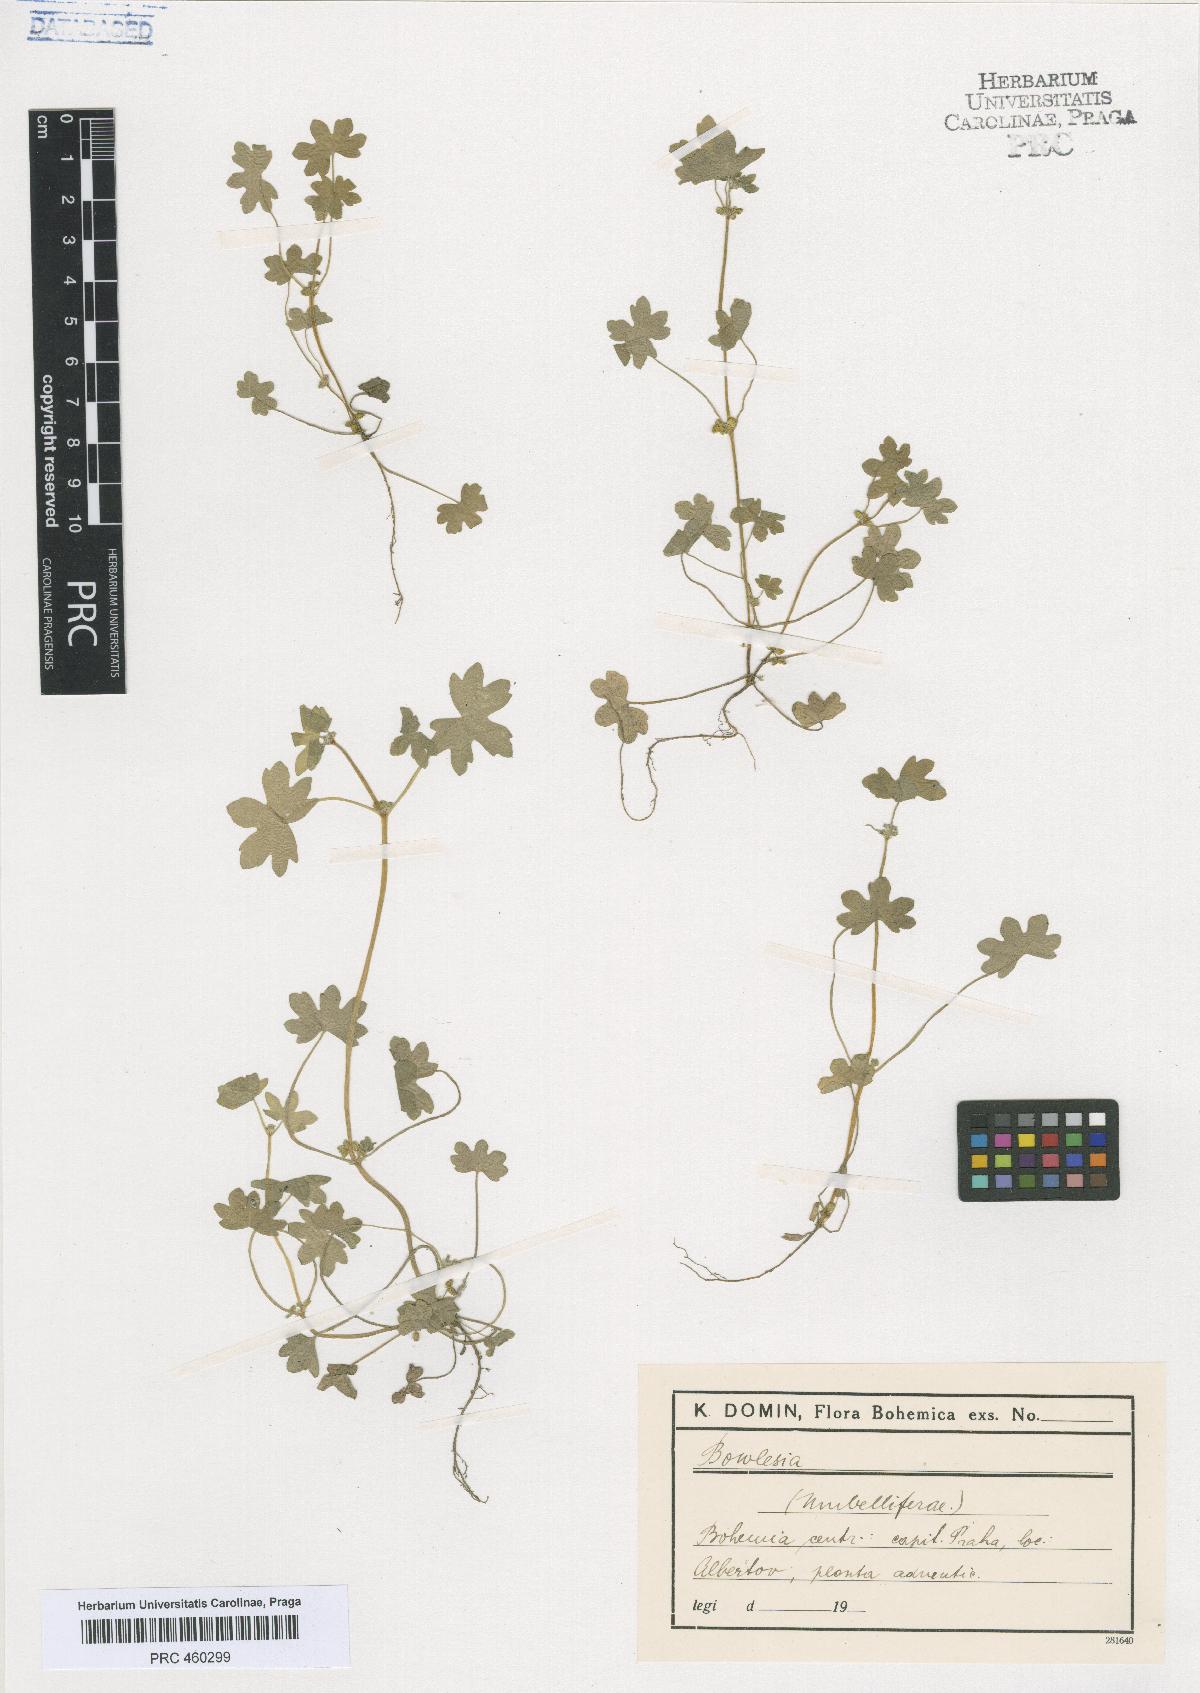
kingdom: Plantae
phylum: Tracheophyta
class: Magnoliopsida
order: Apiales
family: Apiaceae
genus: Bowlesia
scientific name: Bowlesia
